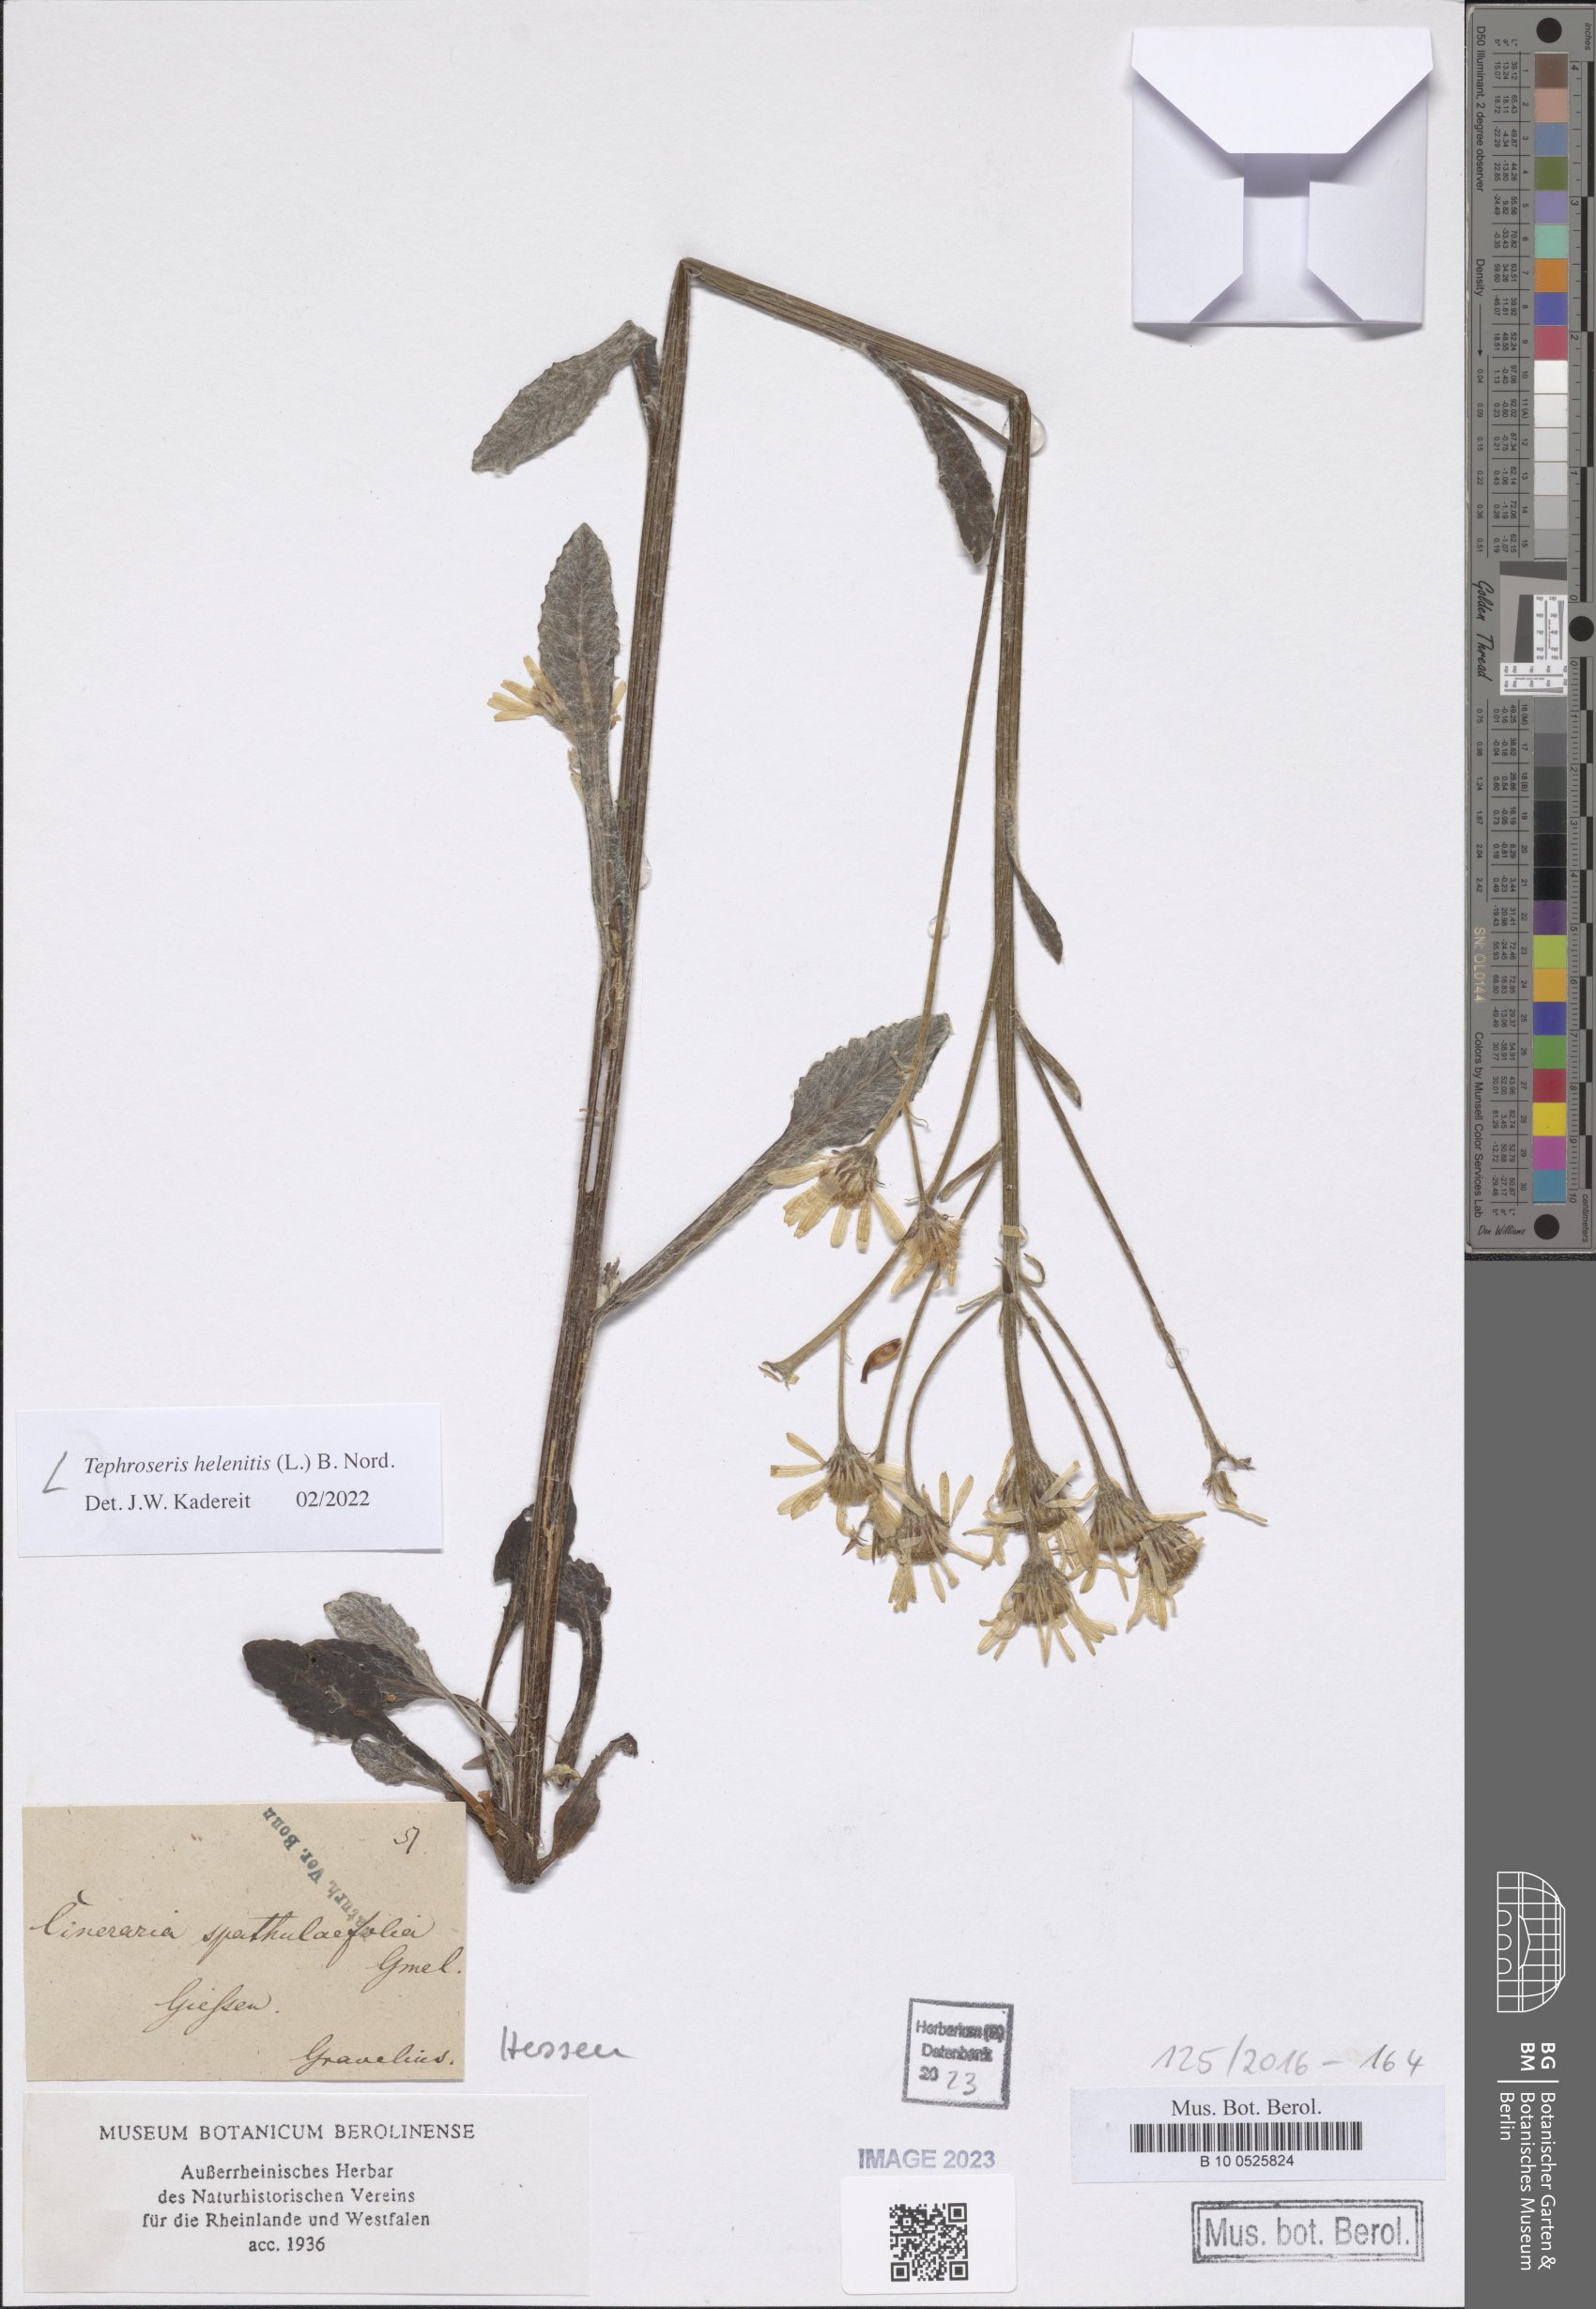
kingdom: Plantae
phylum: Tracheophyta
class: Magnoliopsida
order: Asterales
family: Asteraceae
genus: Tephroseris
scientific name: Tephroseris helenitis
